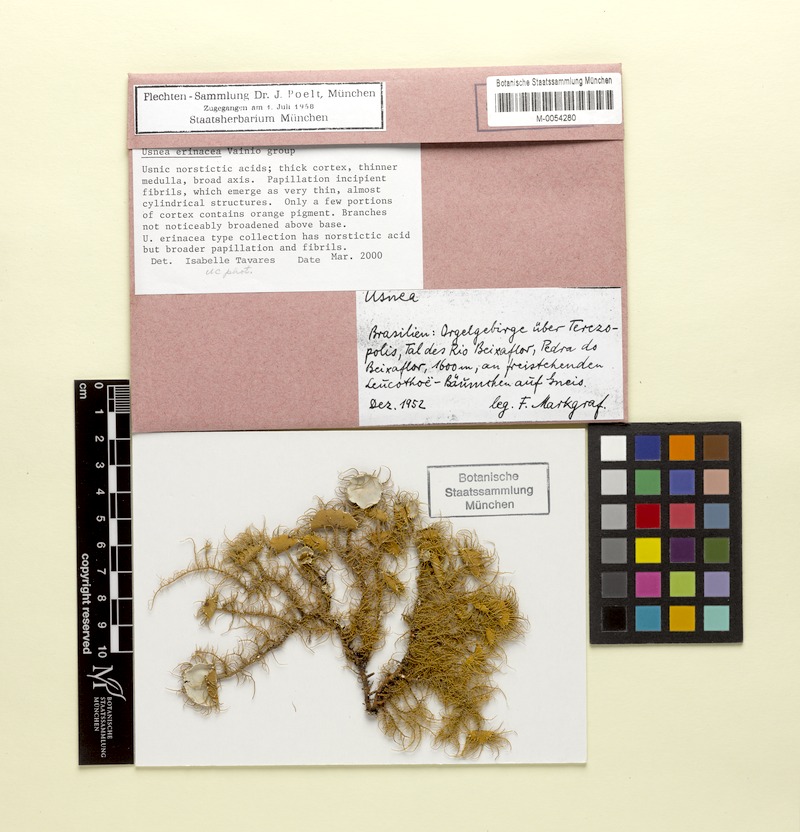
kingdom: Fungi
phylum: Ascomycota
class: Lecanoromycetes
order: Lecanorales
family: Parmeliaceae
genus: Usnea
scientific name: Usnea erinacea
